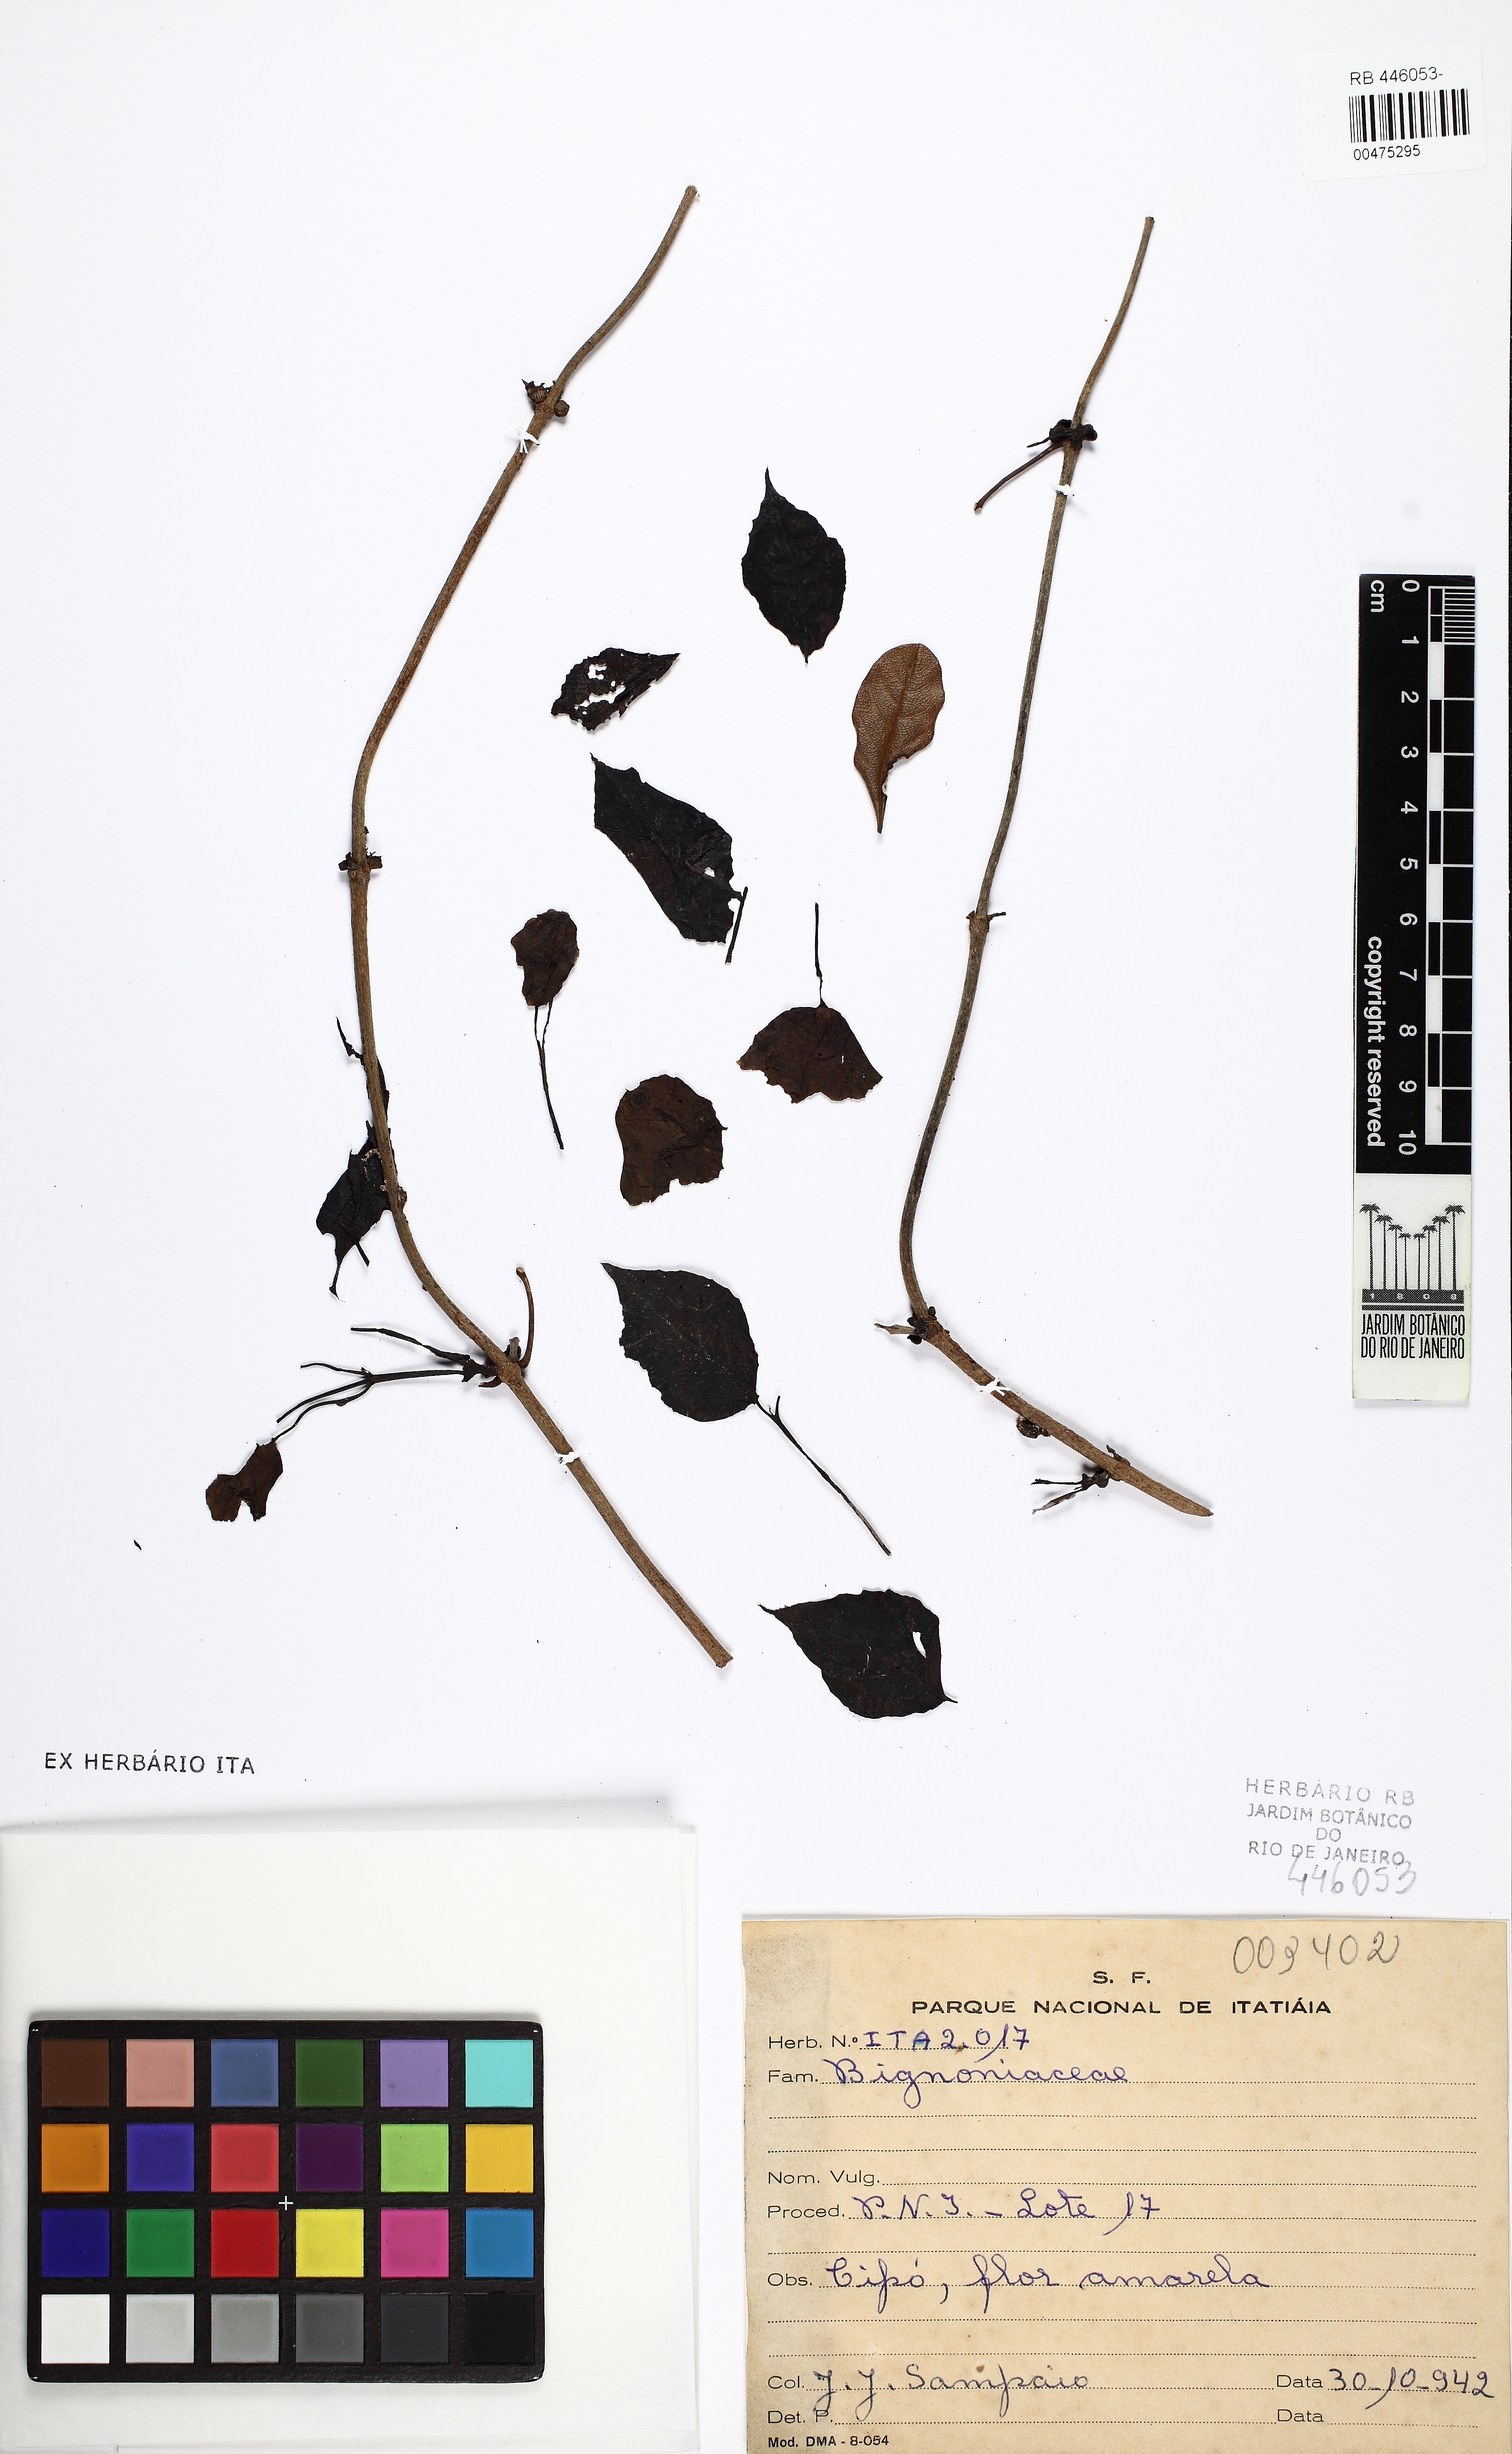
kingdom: Plantae
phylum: Tracheophyta
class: Magnoliopsida
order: Lamiales
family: Bignoniaceae
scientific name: Bignoniaceae
